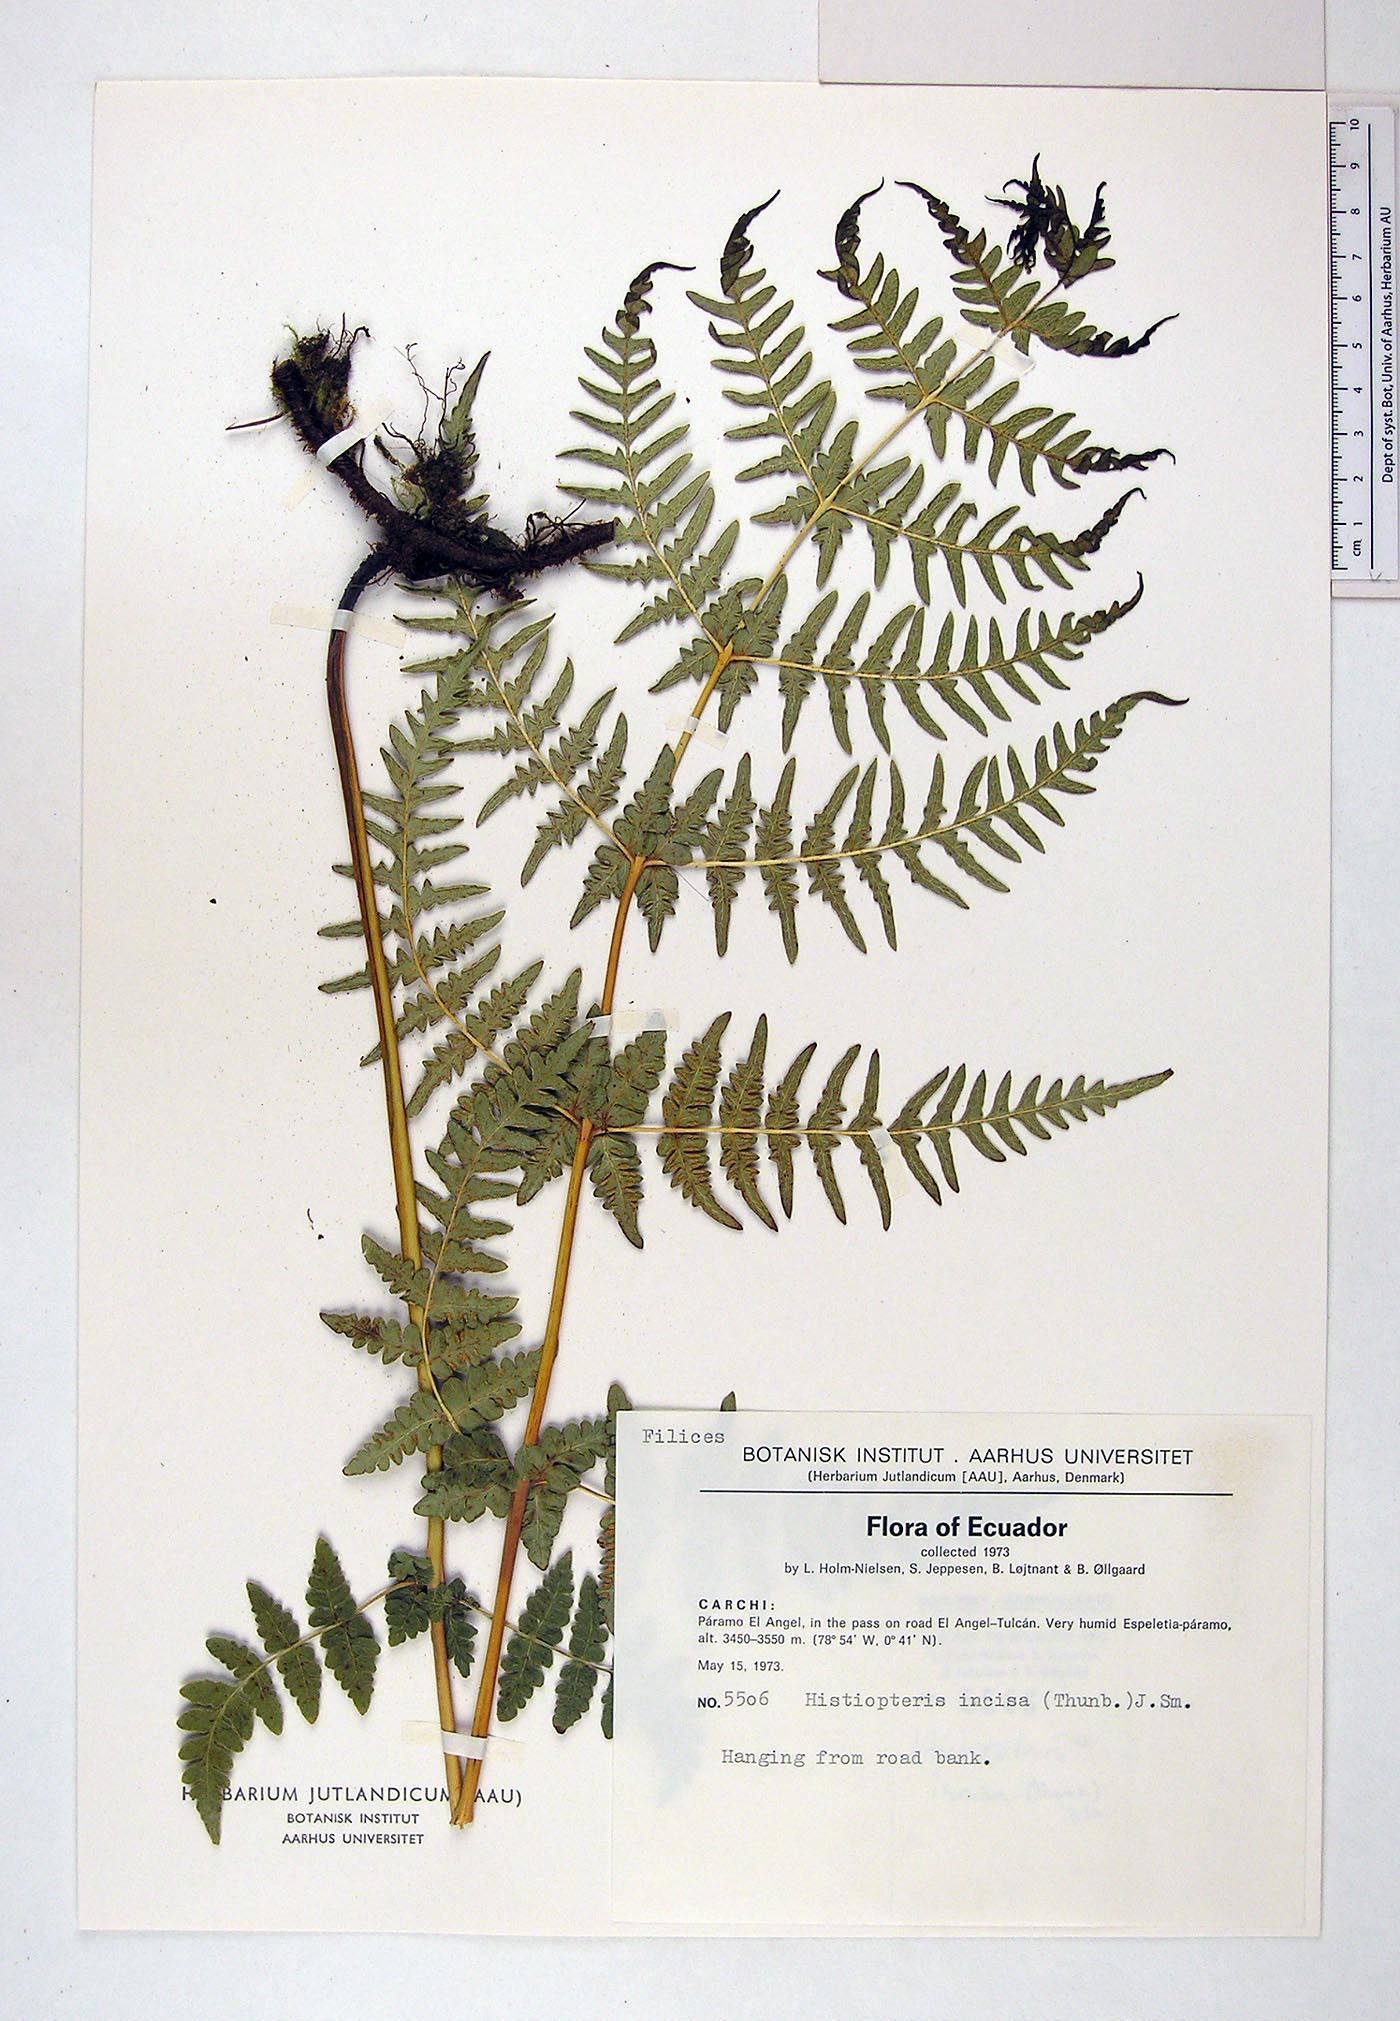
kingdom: Plantae
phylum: Tracheophyta
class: Polypodiopsida
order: Polypodiales
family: Dennstaedtiaceae
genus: Histiopteris
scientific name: Histiopteris incisa
